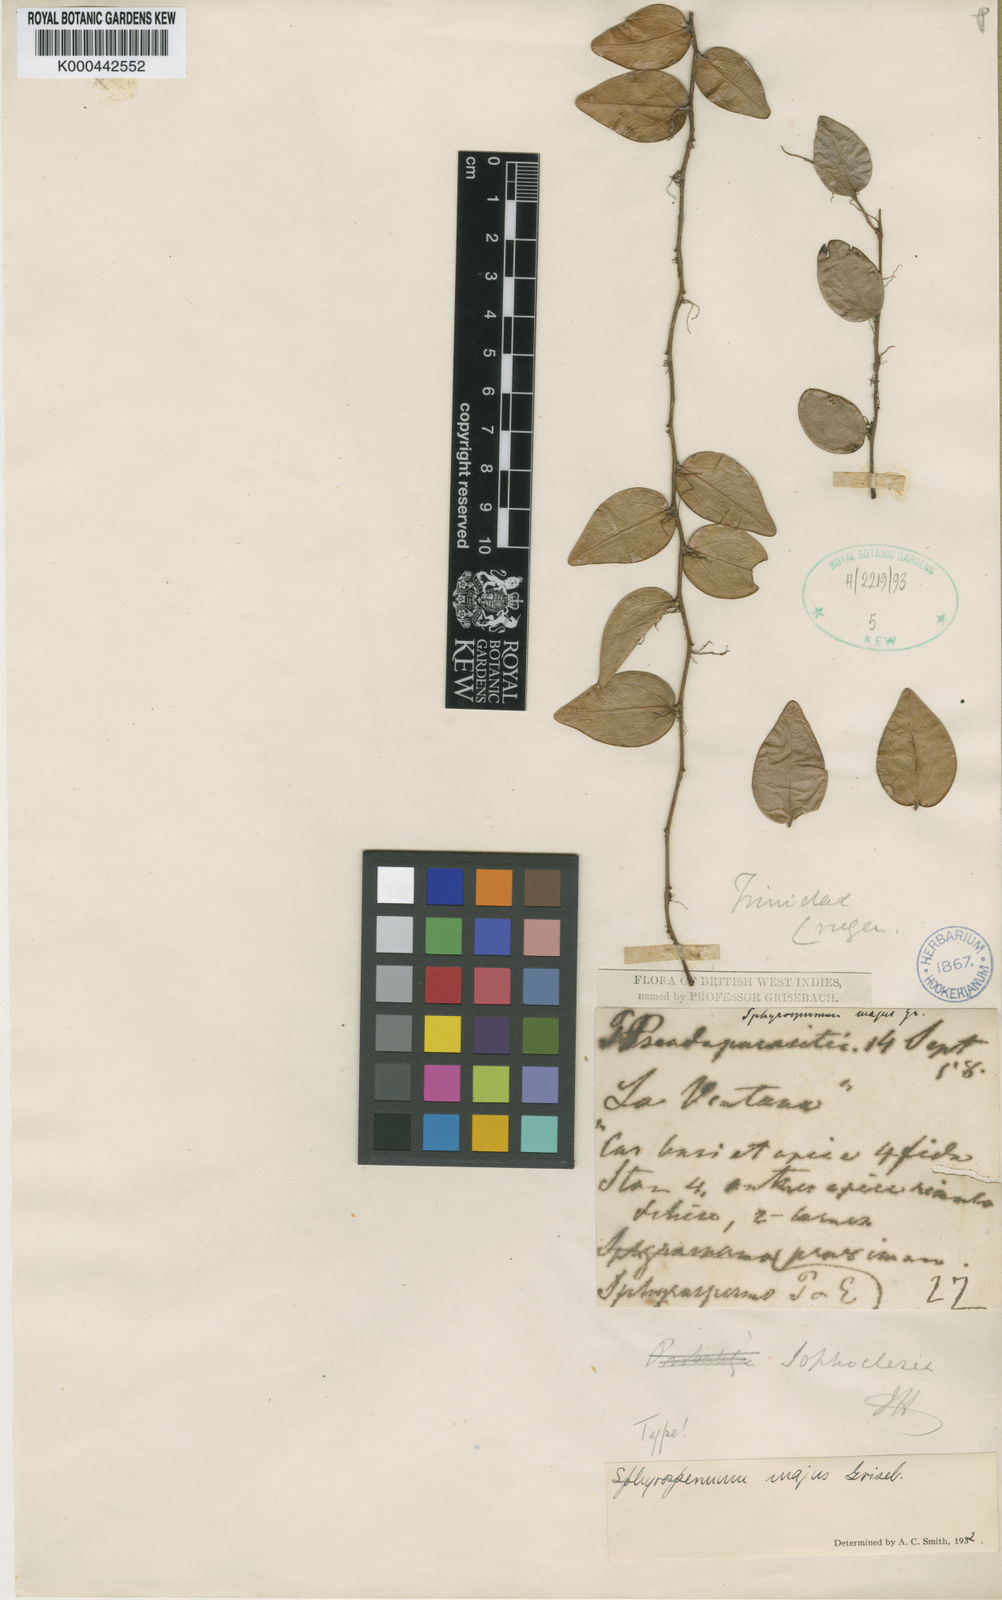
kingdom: Plantae
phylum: Tracheophyta
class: Magnoliopsida
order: Ericales
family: Ericaceae
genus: Sphyrospermum
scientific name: Sphyrospermum cordifolium
